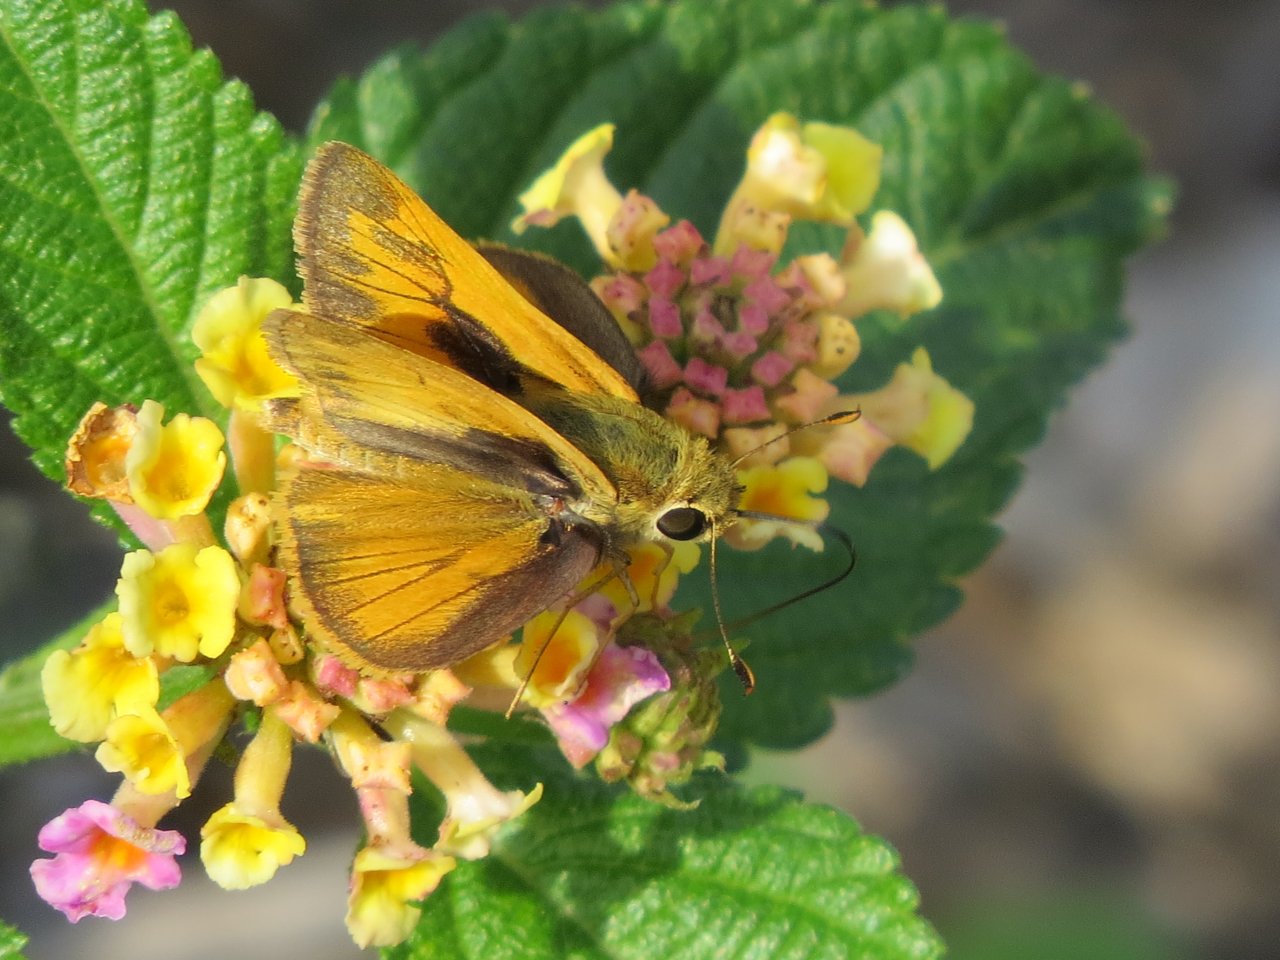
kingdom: Animalia
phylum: Arthropoda
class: Insecta
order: Lepidoptera
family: Hesperiidae
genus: Hylephila
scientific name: Hylephila phyleus
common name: Fiery Skipper
